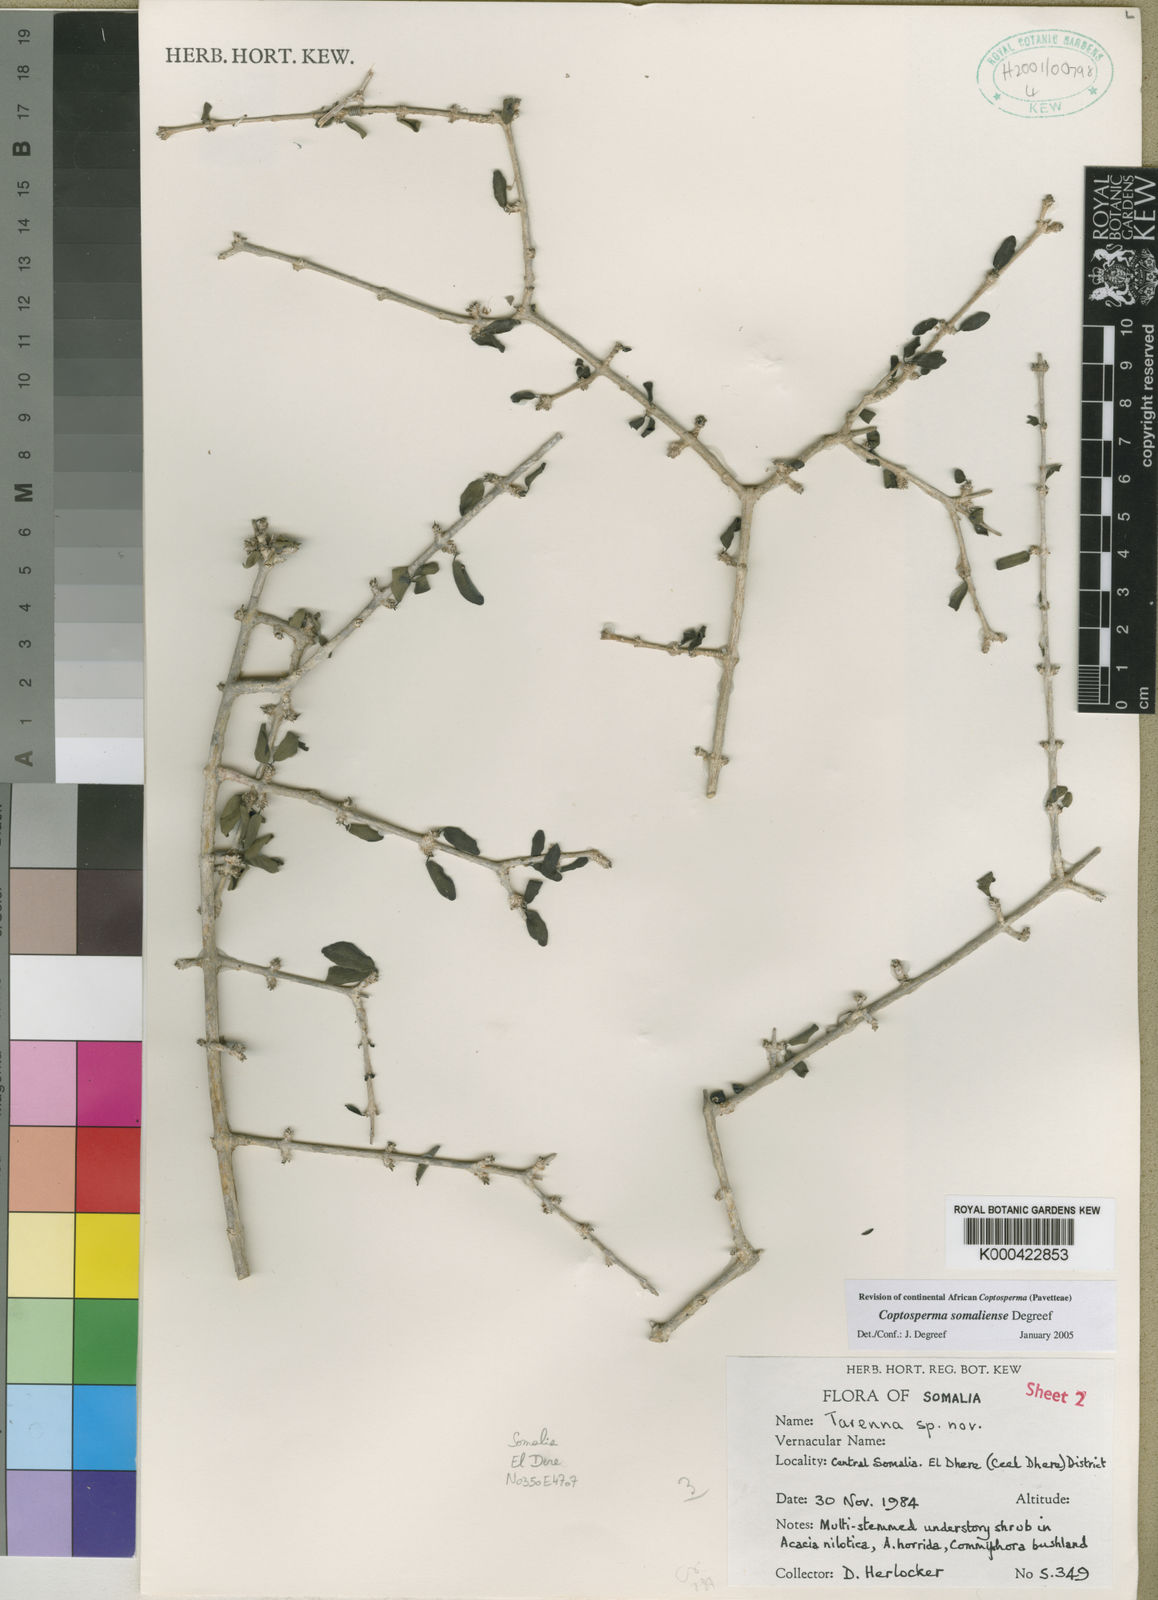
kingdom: Plantae
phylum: Tracheophyta
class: Magnoliopsida
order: Gentianales
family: Rubiaceae
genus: Coptosperma
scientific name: Coptosperma somaliense
